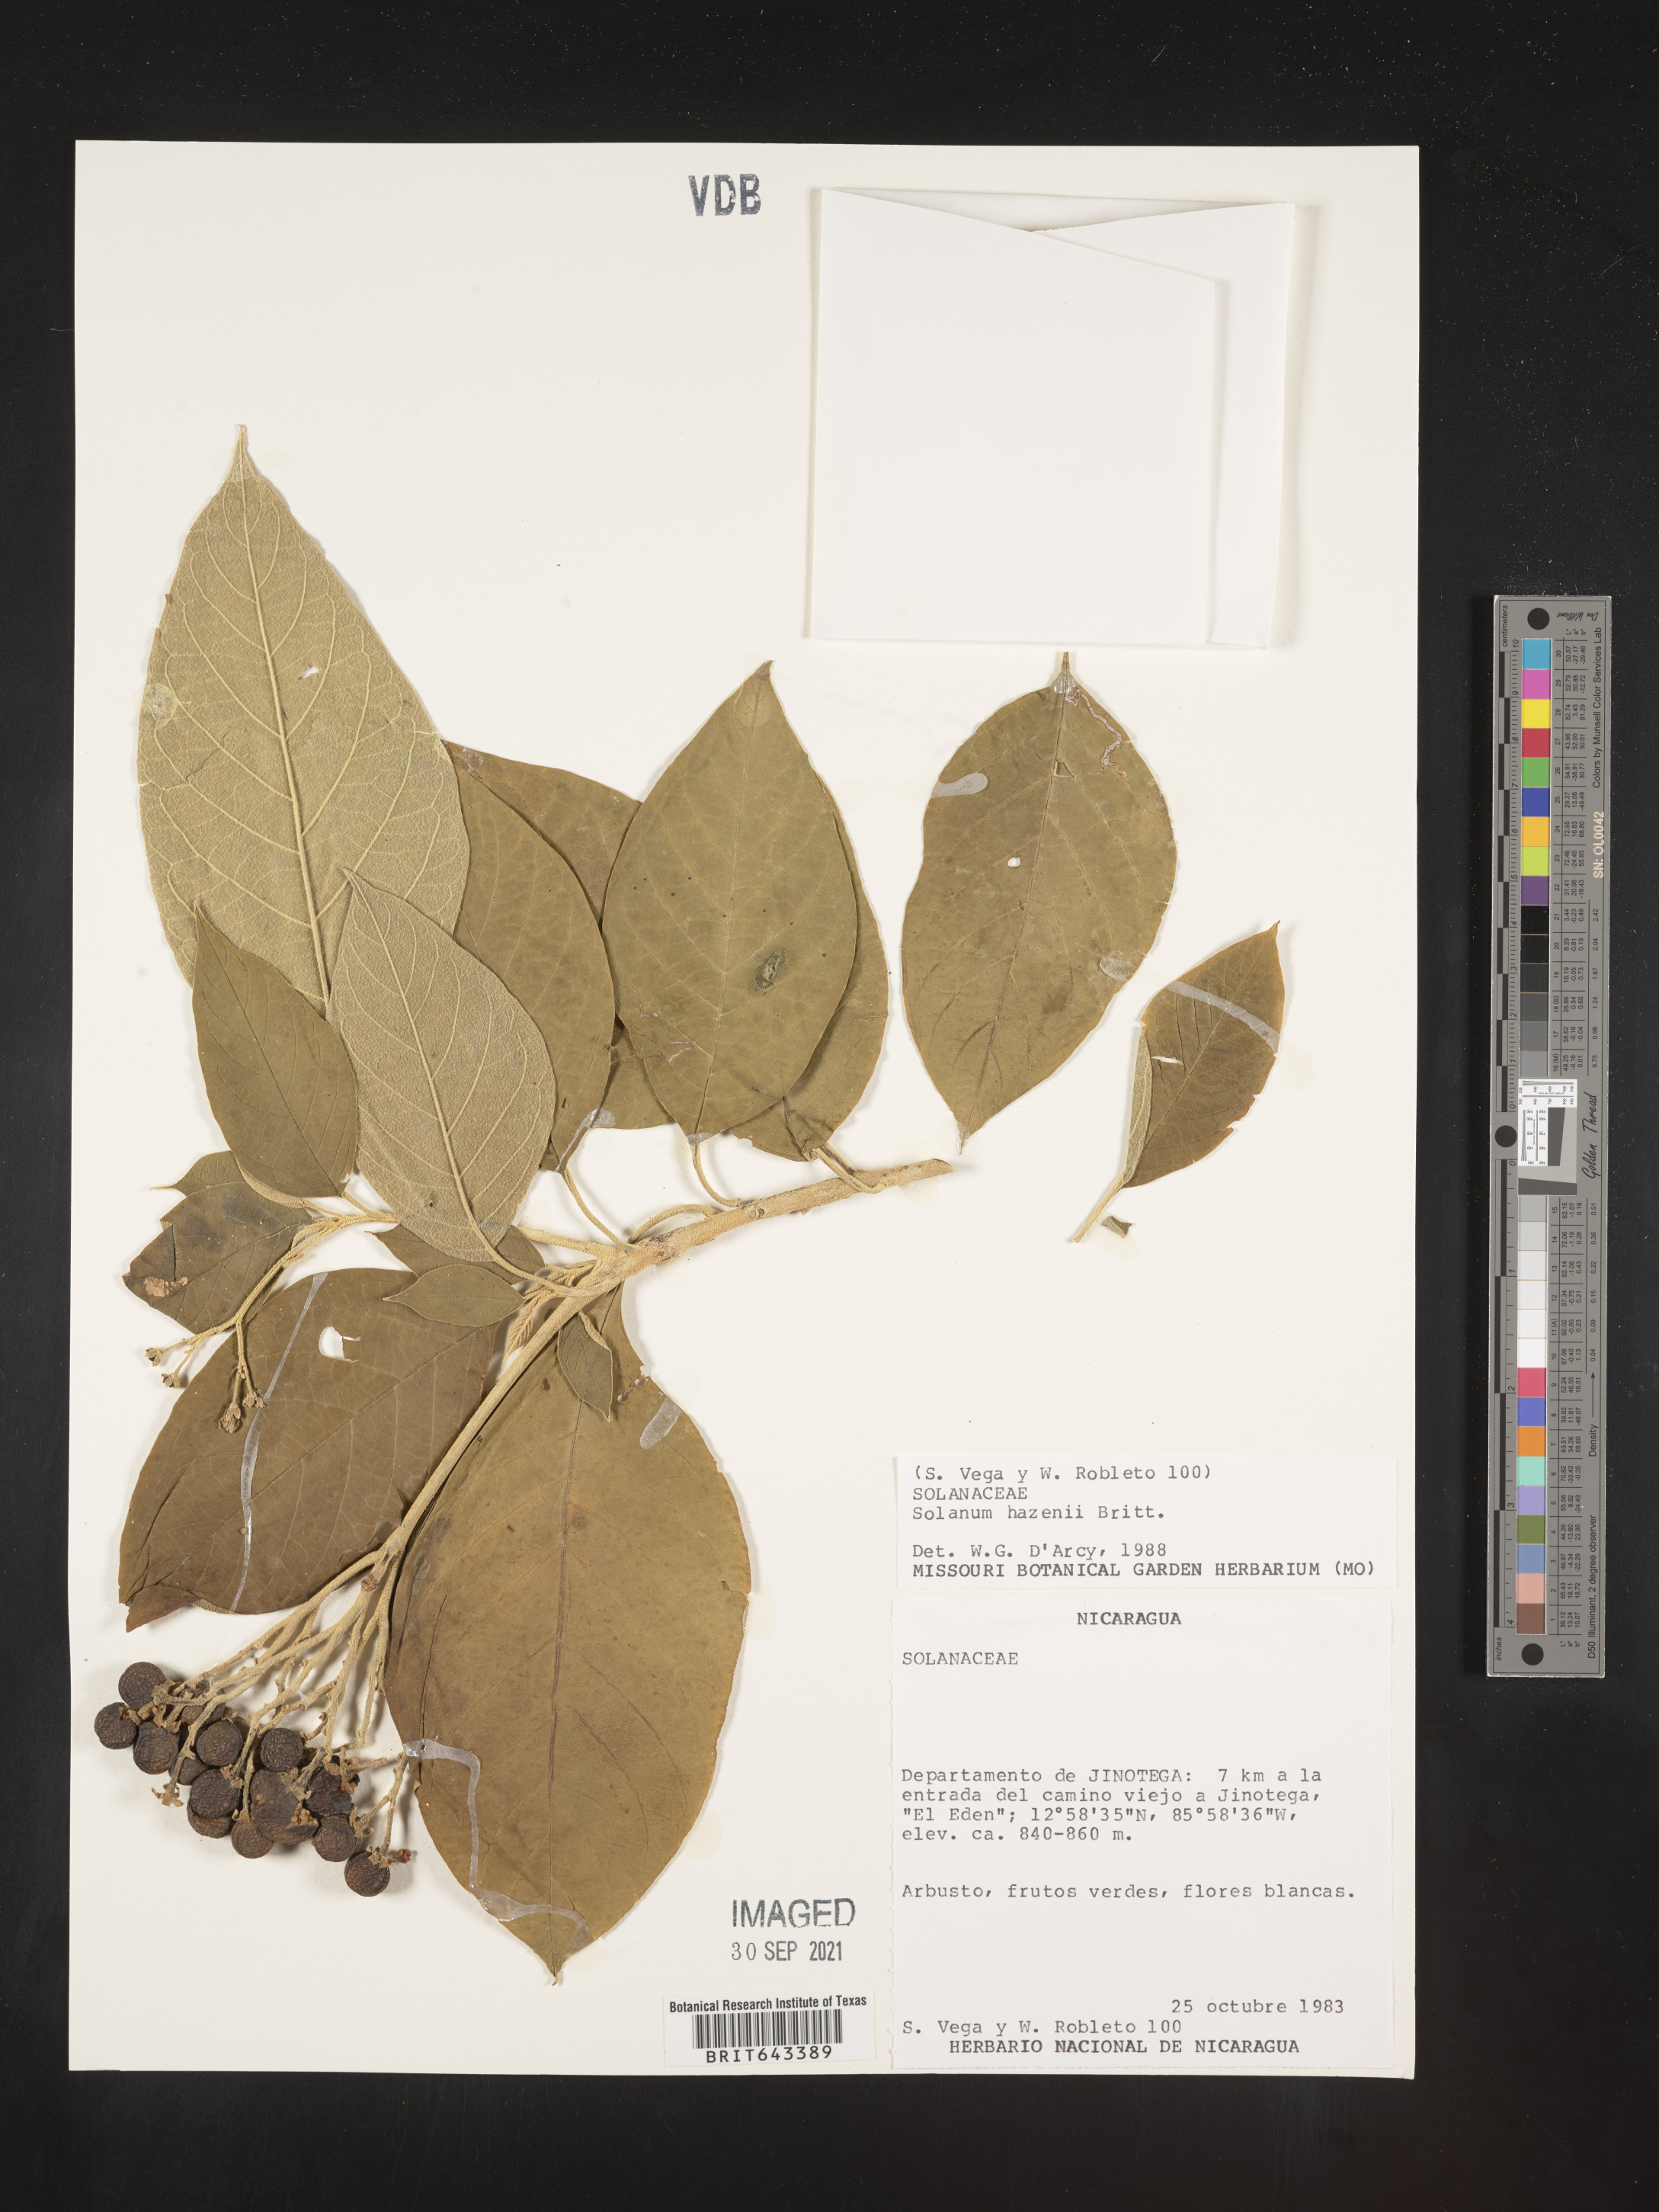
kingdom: Plantae
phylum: Tracheophyta
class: Magnoliopsida
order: Solanales
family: Solanaceae
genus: Solanum
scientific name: Solanum
